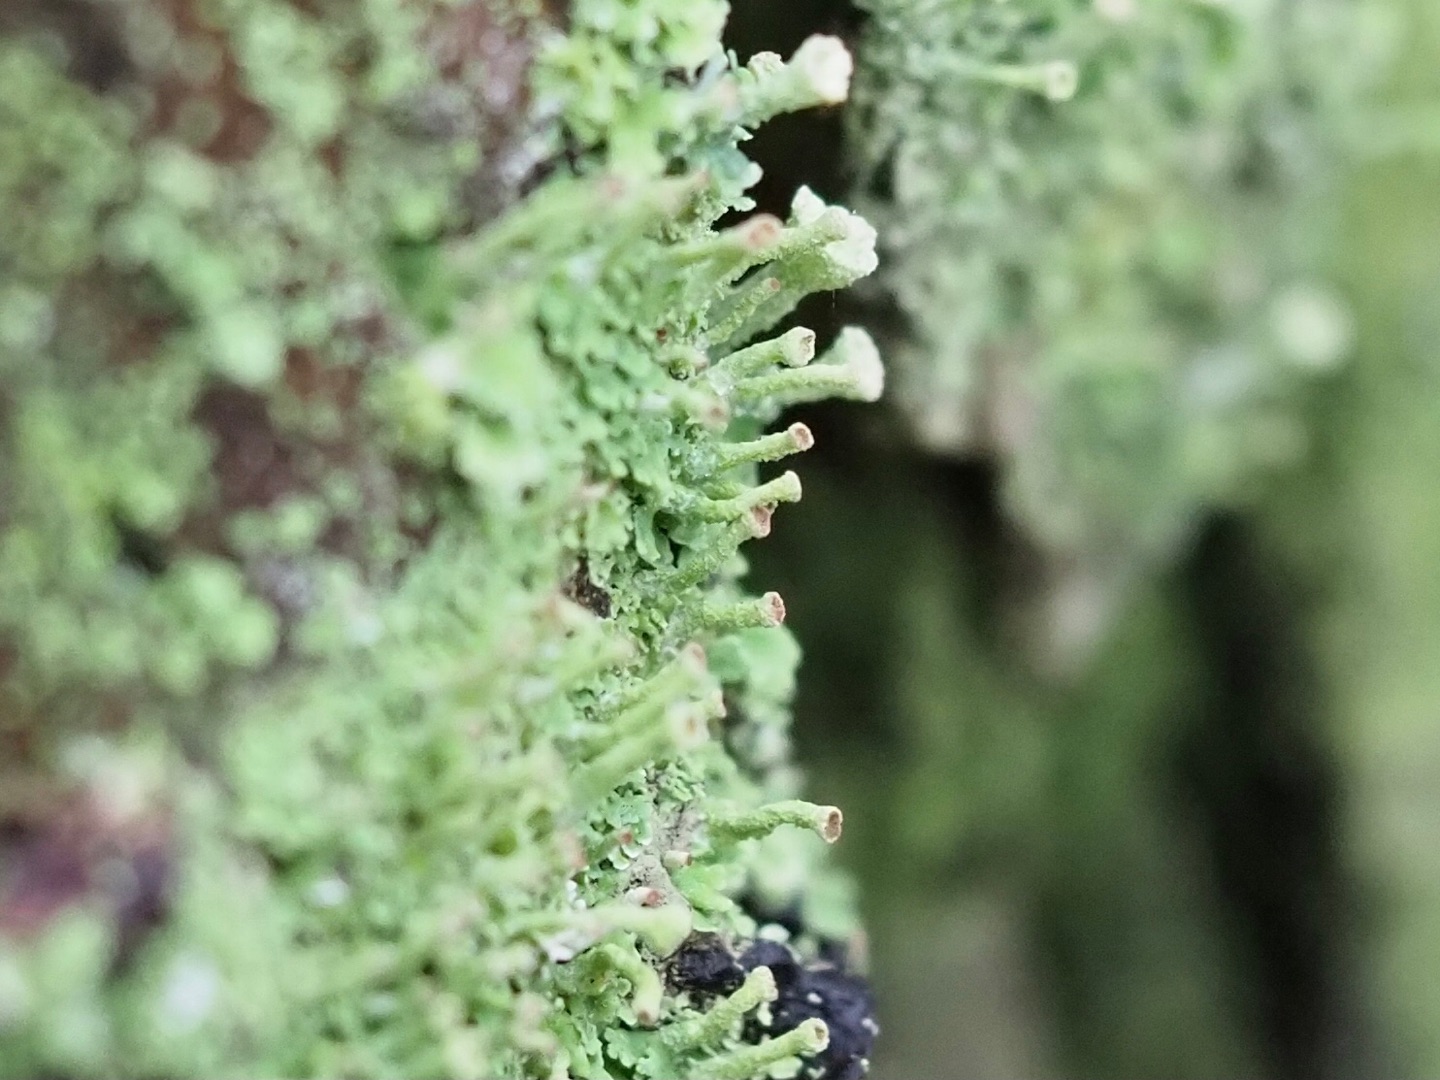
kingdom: Fungi
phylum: Ascomycota
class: Lecanoromycetes
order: Lecanorales
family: Cladoniaceae
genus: Cladonia
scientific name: Cladonia
